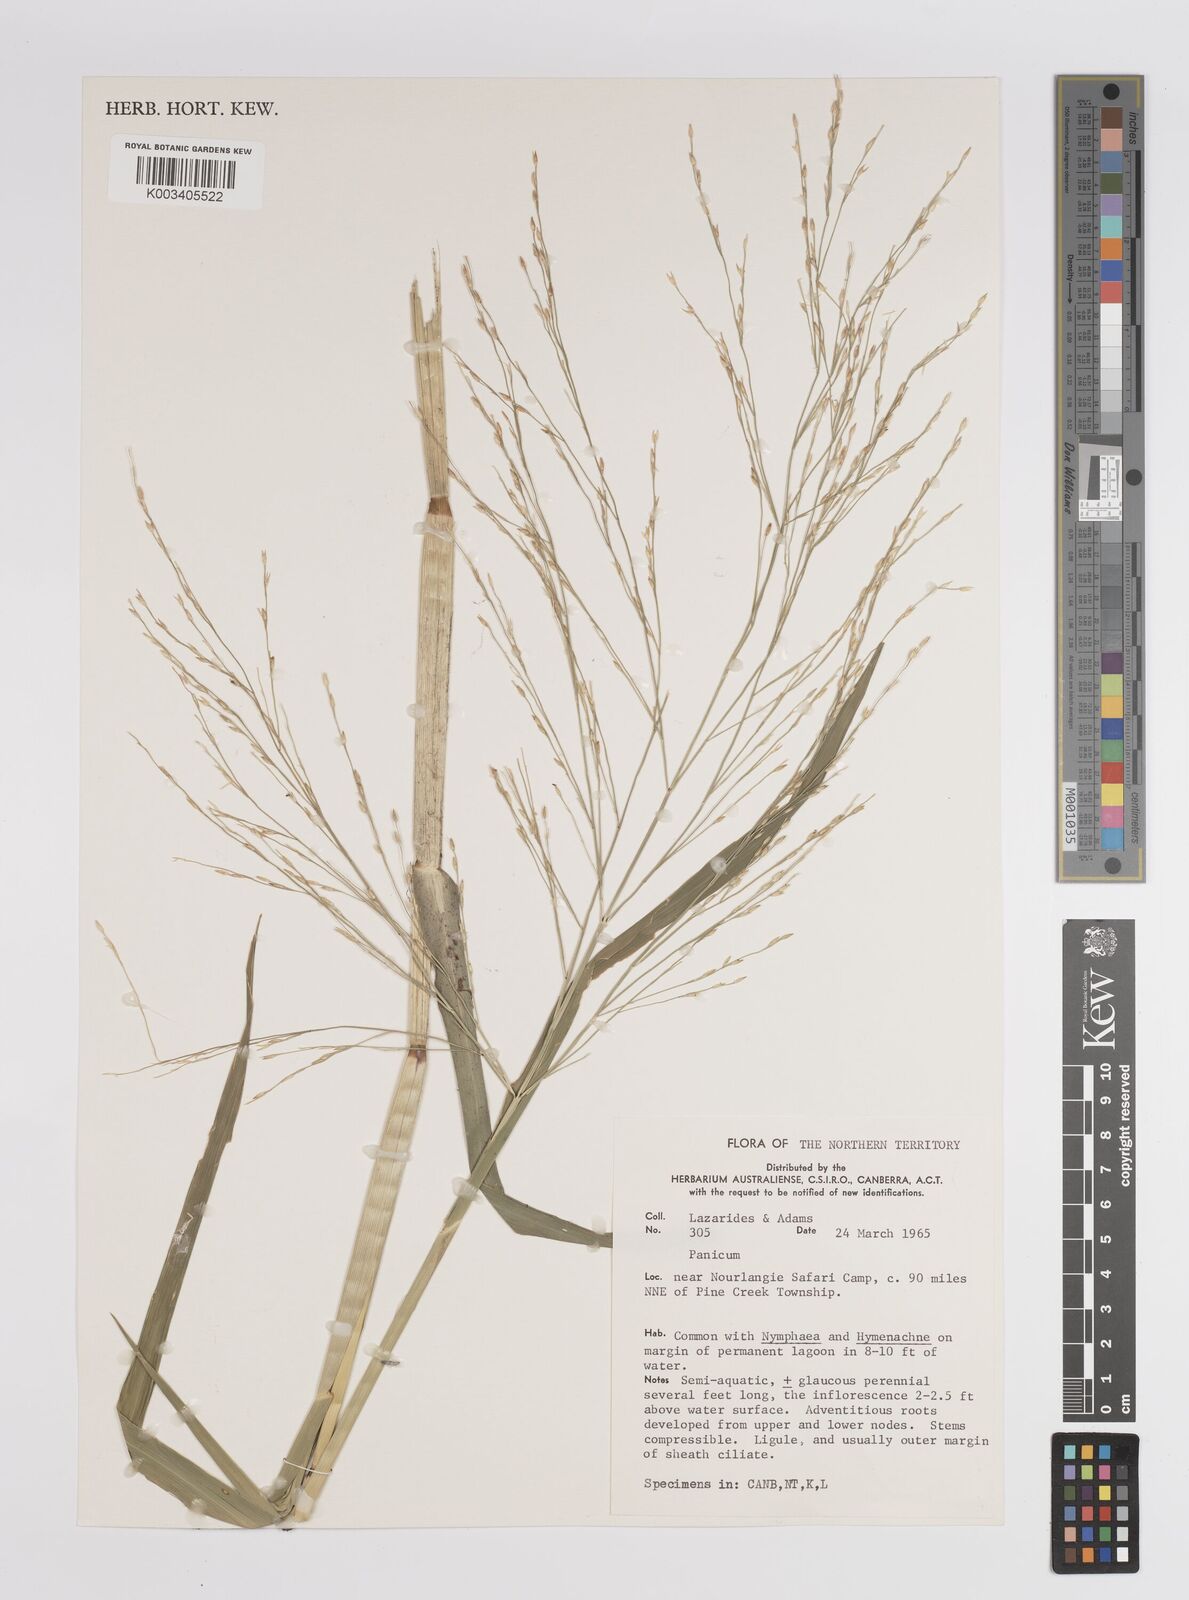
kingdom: Plantae
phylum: Tracheophyta
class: Liliopsida
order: Poales
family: Poaceae
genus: Panicum
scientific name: Panicum
